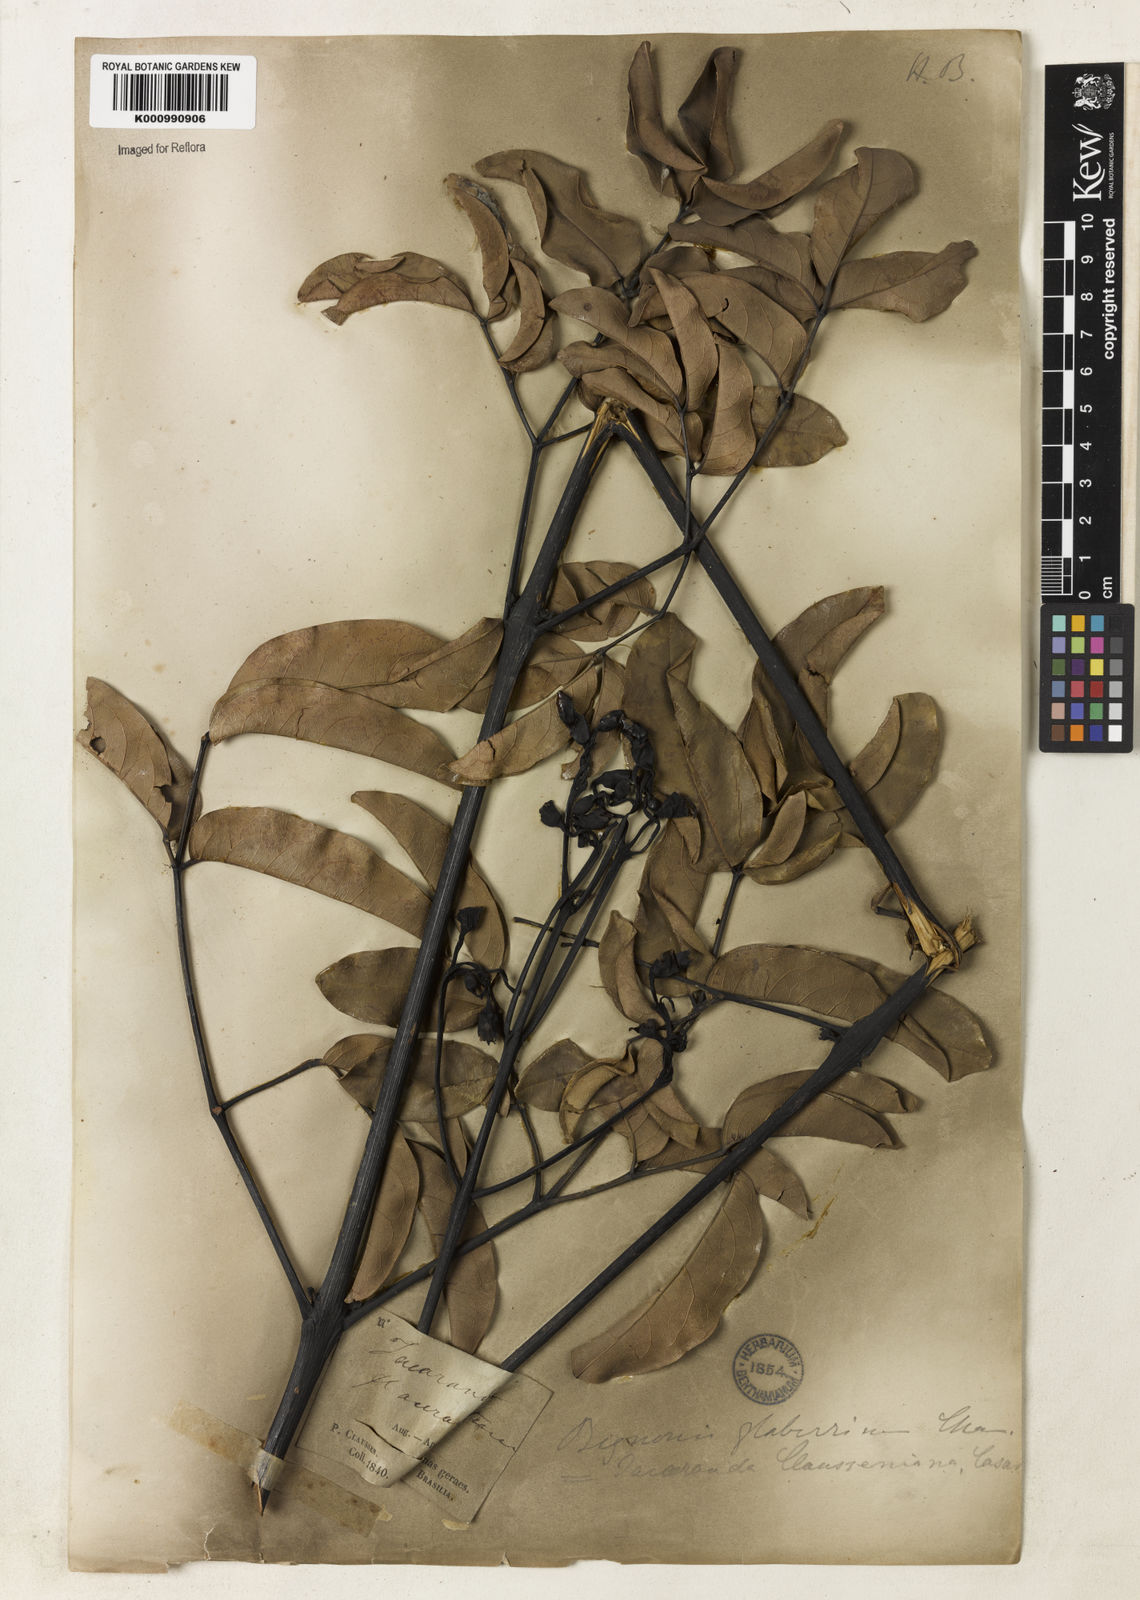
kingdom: Plantae
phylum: Tracheophyta
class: Magnoliopsida
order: Lamiales
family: Bignoniaceae
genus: Adenocalymma
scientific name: Adenocalymma pedunculatum
